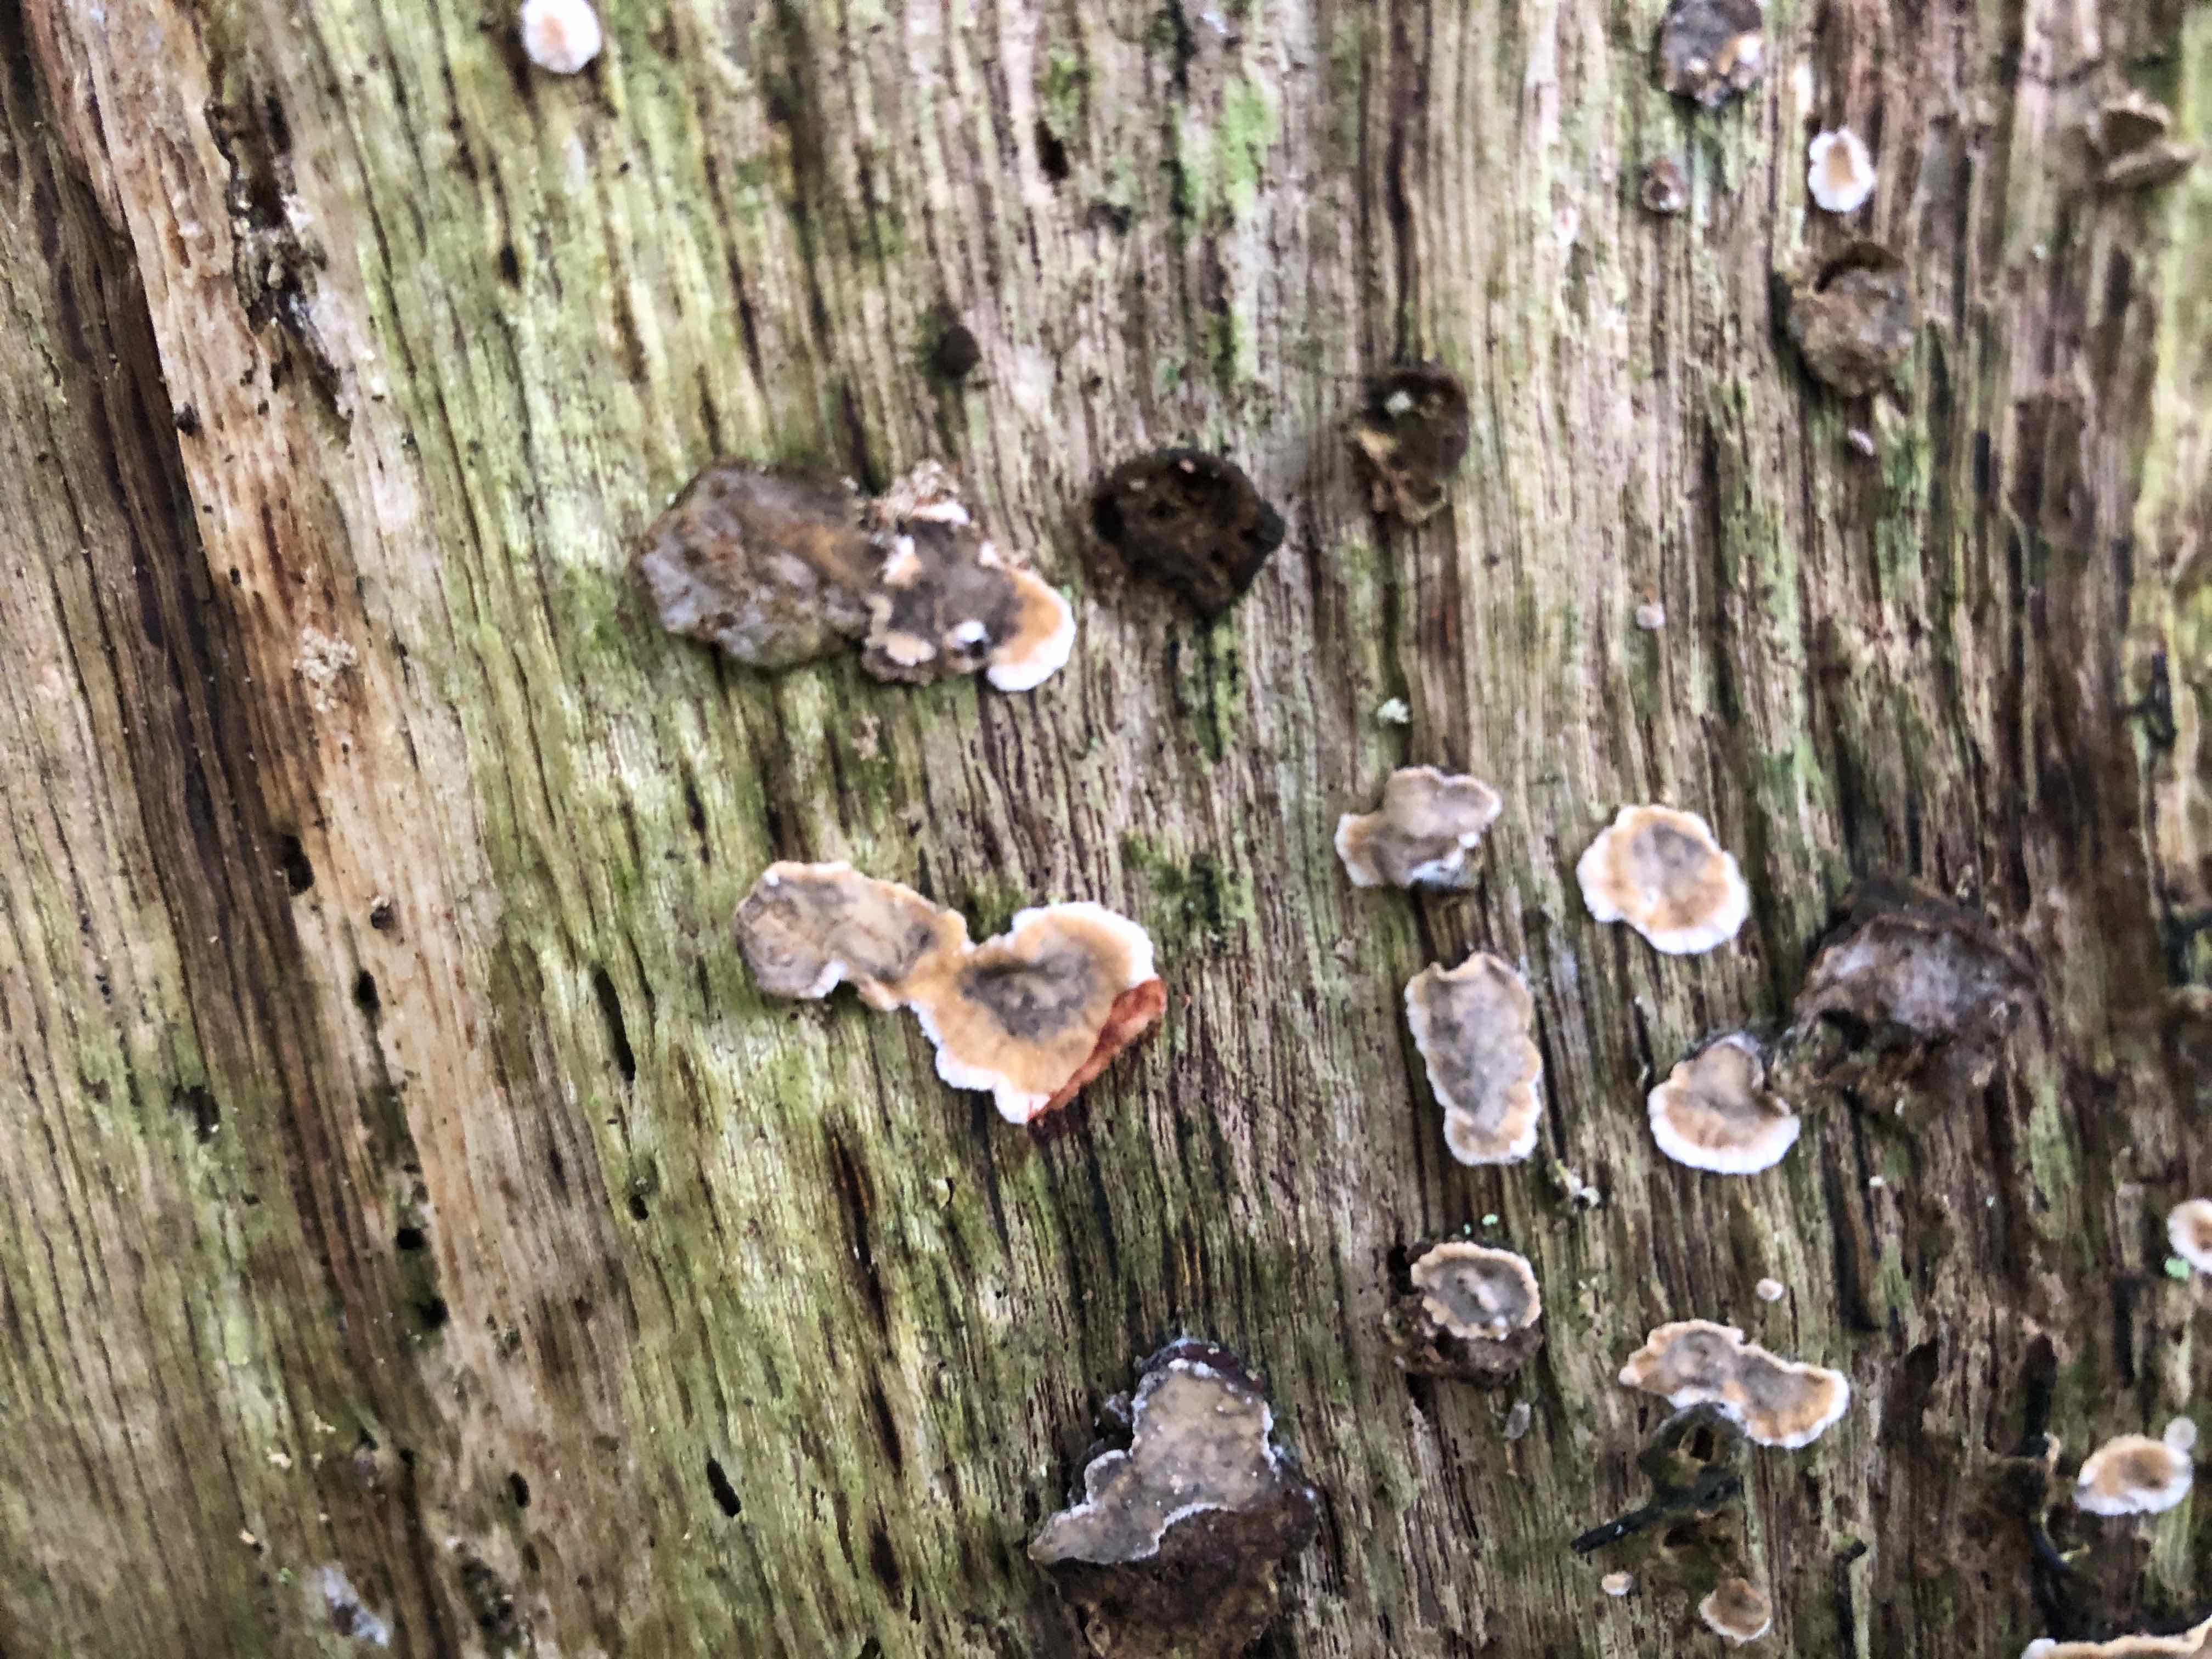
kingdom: Fungi
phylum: Basidiomycota
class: Agaricomycetes
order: Russulales
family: Stereaceae
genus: Stereum
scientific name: Stereum gausapatum
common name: tynd lædersvamp
